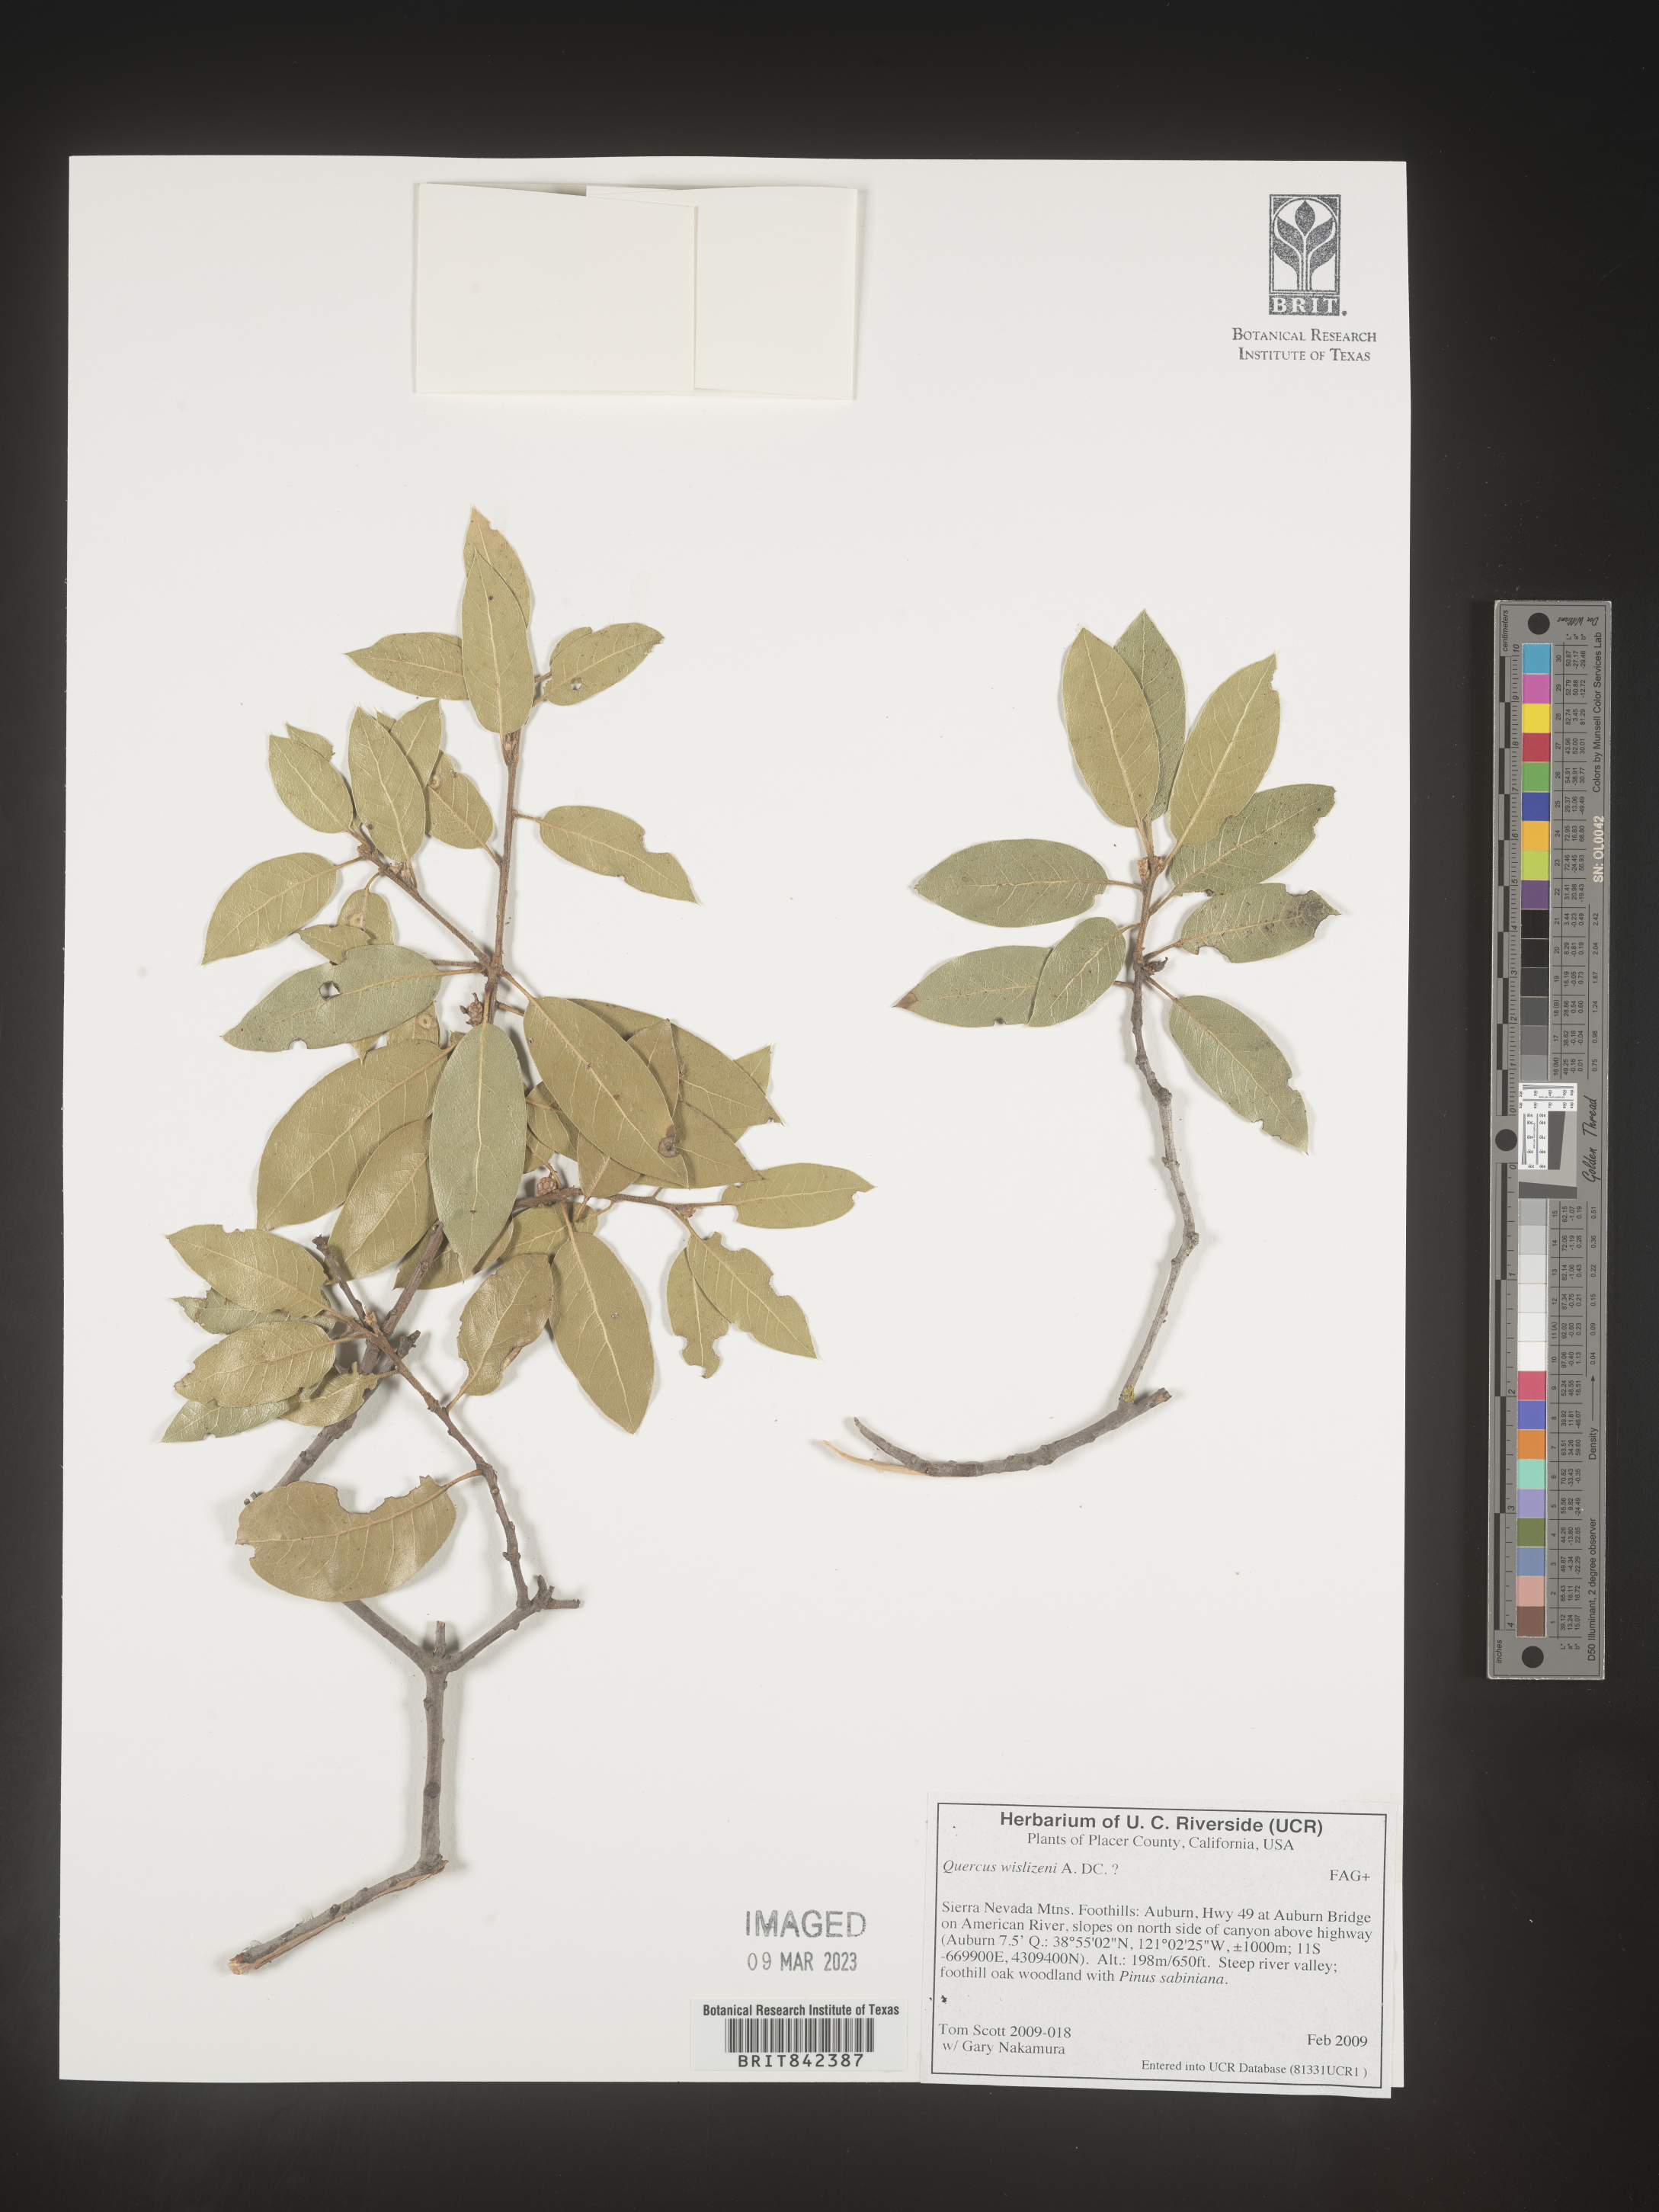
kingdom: Plantae
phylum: Tracheophyta
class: Magnoliopsida
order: Fagales
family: Fagaceae
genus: Quercus
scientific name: Quercus wislizeni
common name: Interior live oak
